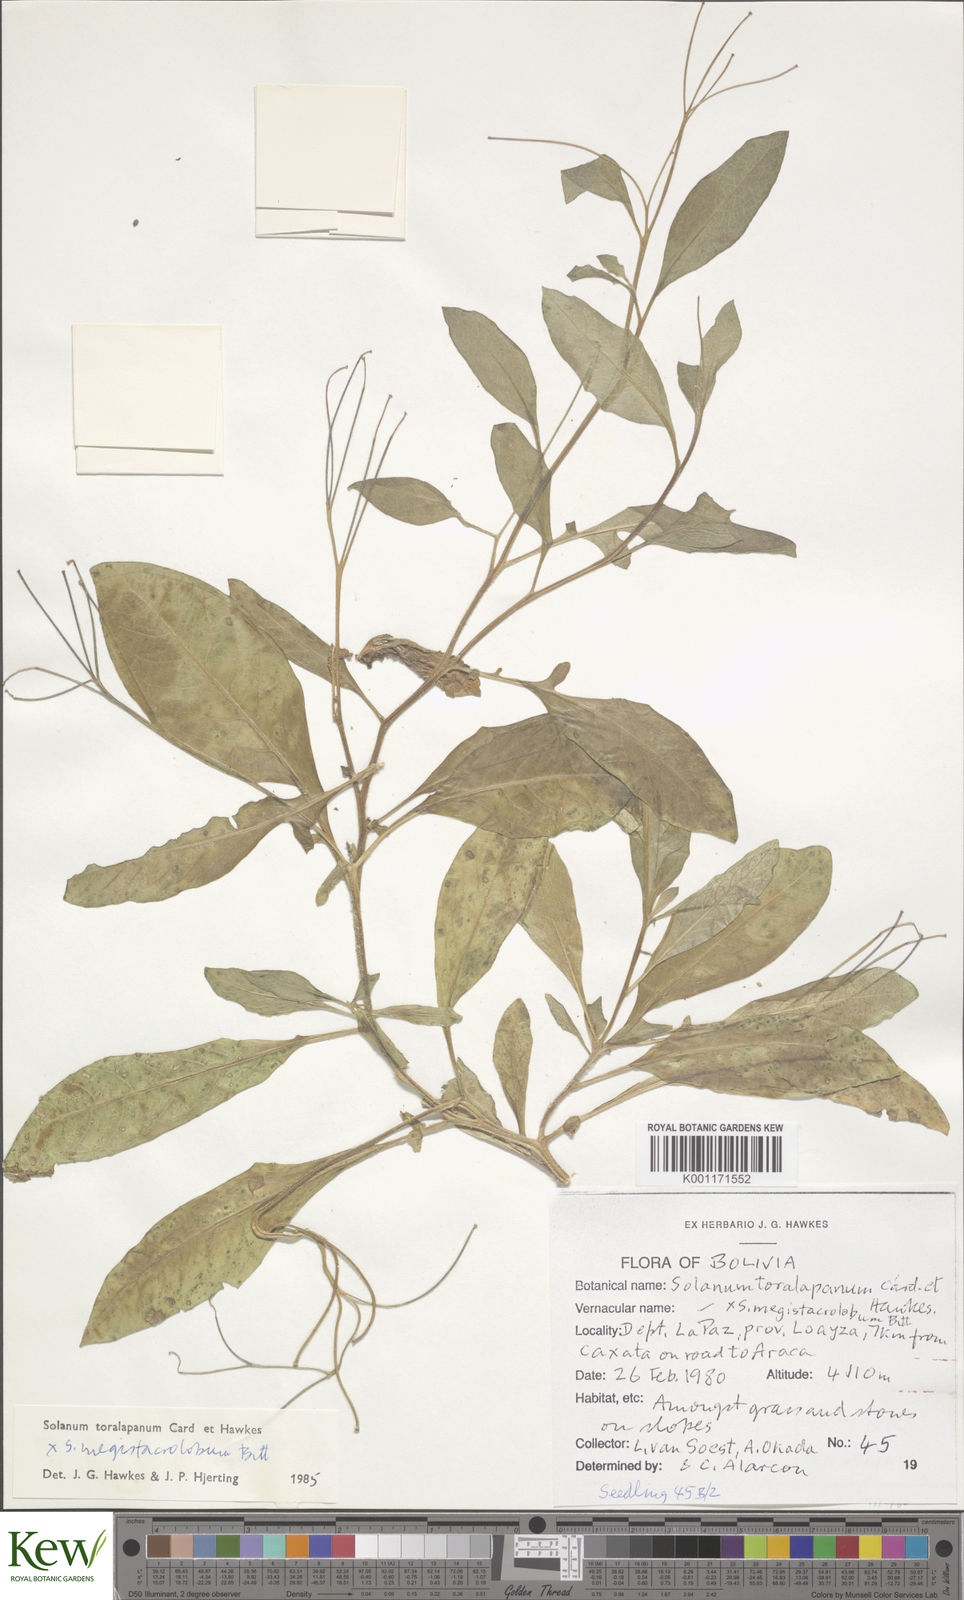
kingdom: Plantae
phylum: Tracheophyta
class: Magnoliopsida
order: Solanales
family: Solanaceae
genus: Solanum
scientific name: Solanum
